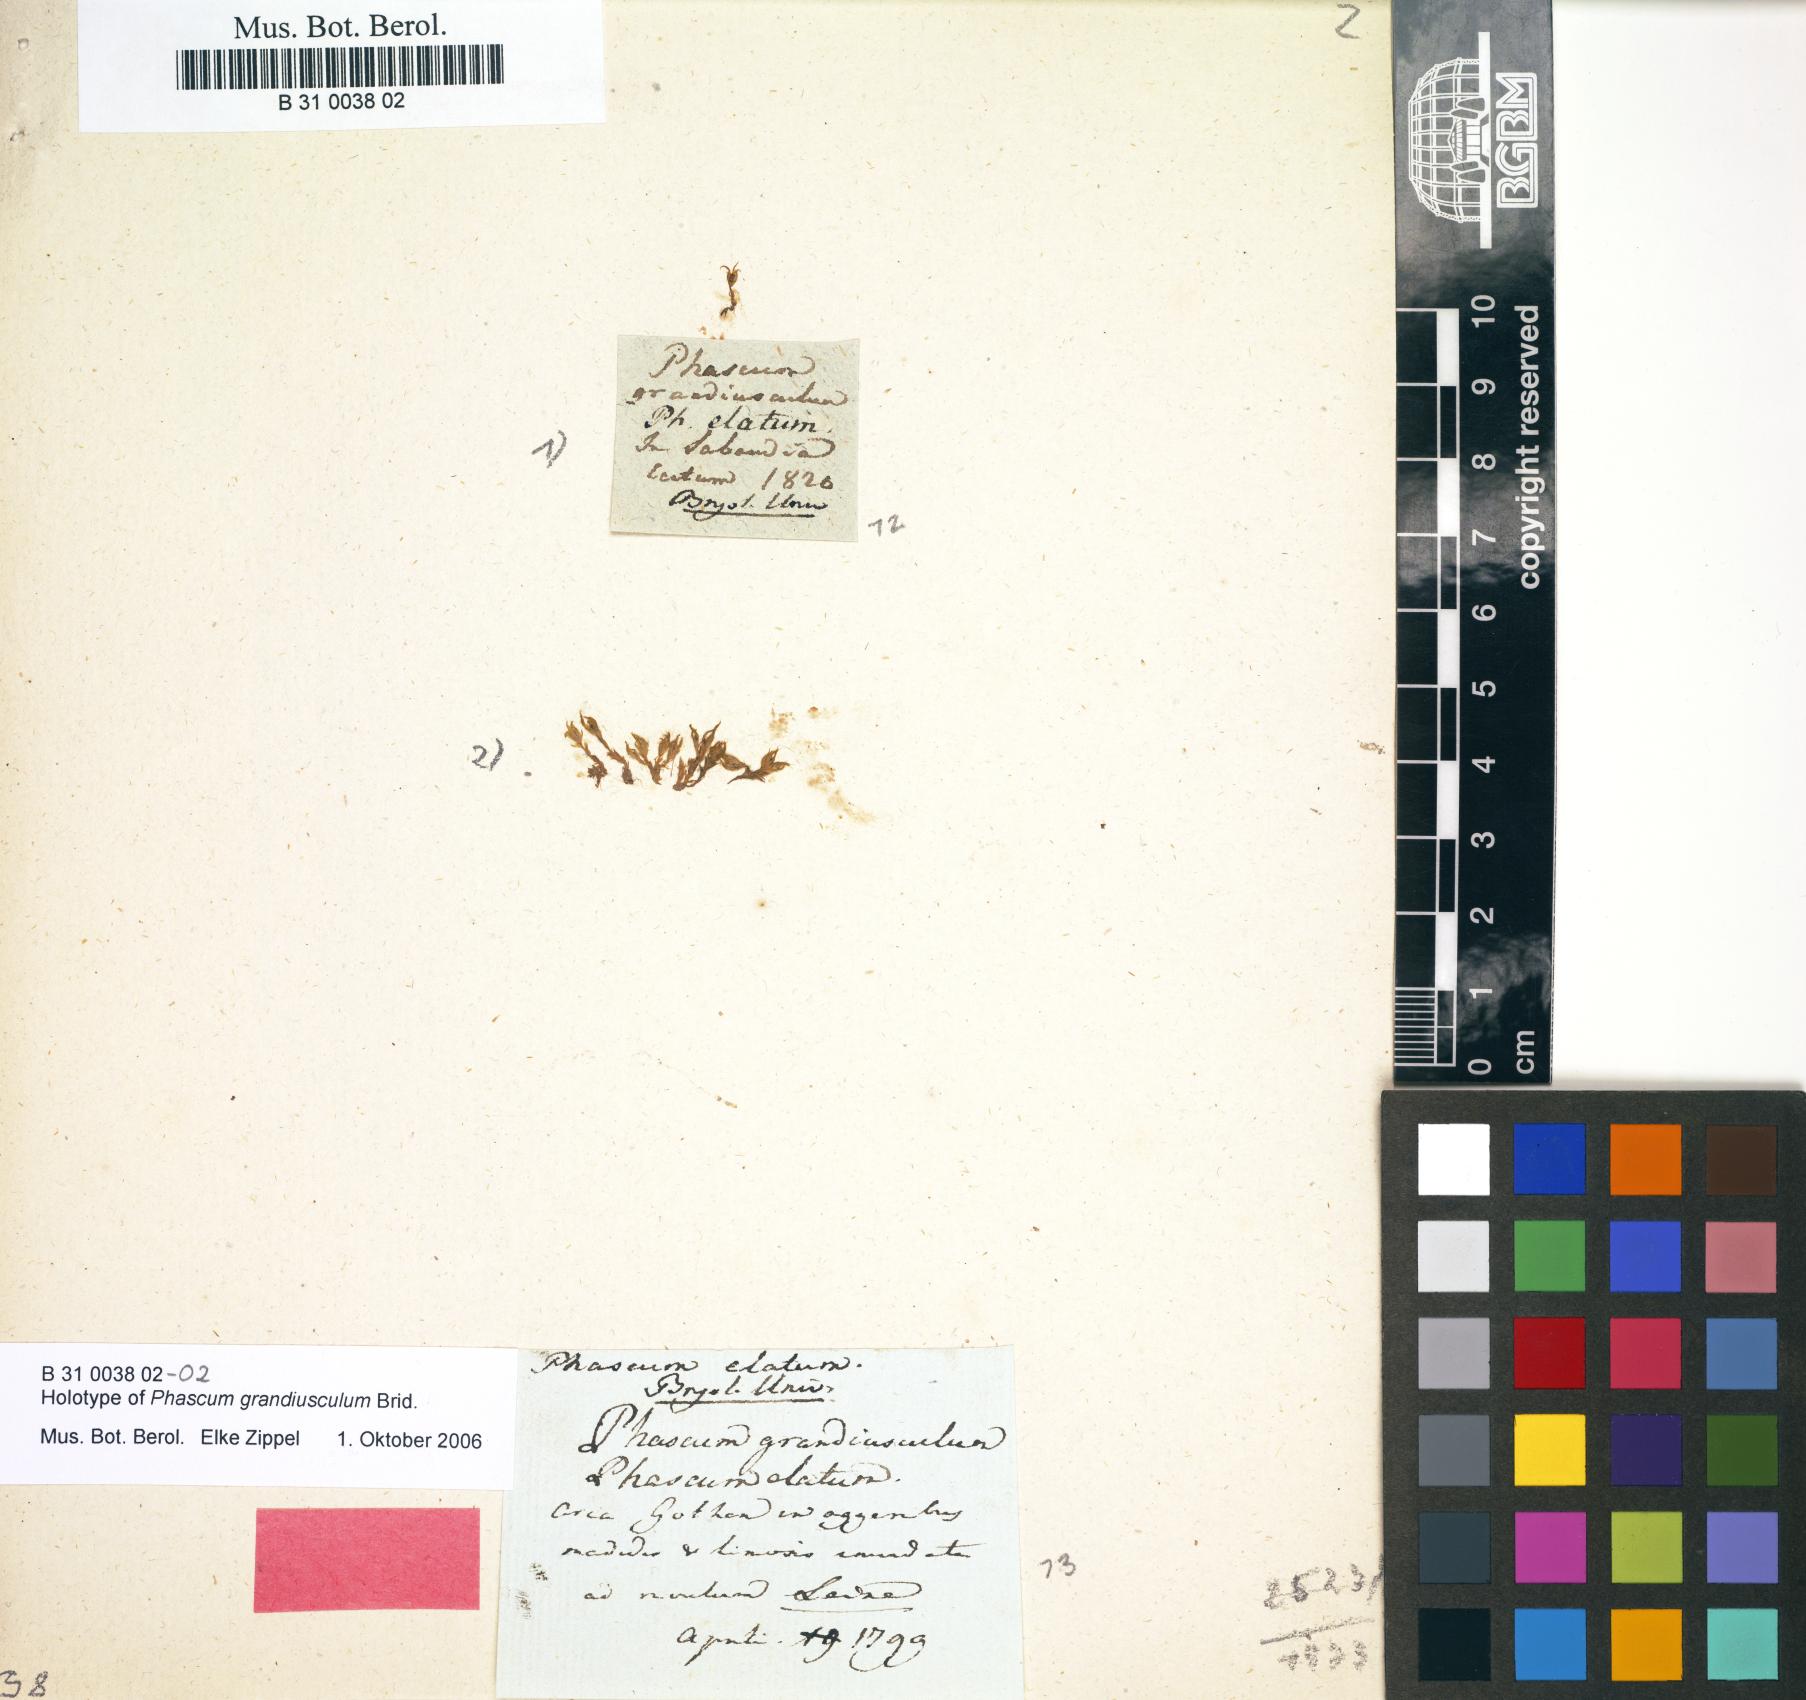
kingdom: Plantae
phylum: Bryophyta
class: Bryopsida
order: Pottiales
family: Pottiaceae
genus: Tortula
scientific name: Tortula acaulon
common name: Cuspidate earth moss
